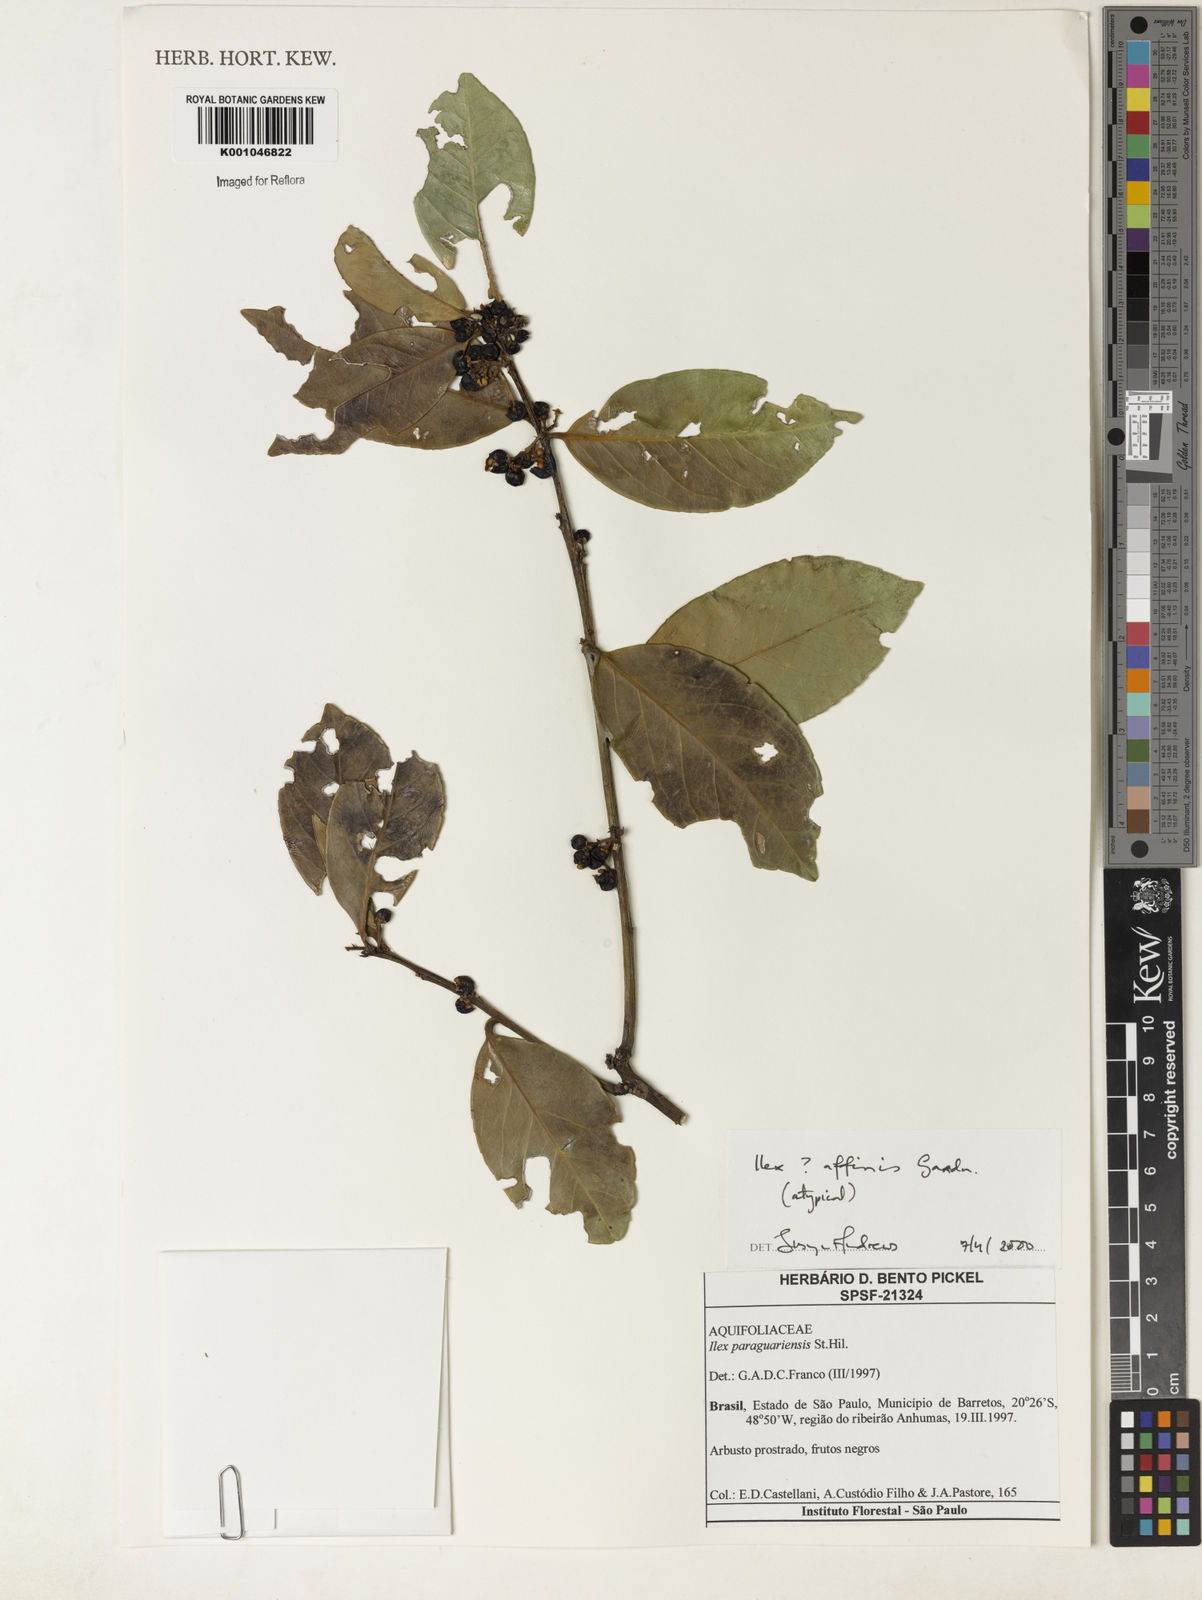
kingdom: Plantae
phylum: Tracheophyta
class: Magnoliopsida
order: Aquifoliales
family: Aquifoliaceae
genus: Ilex
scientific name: Ilex affinis
